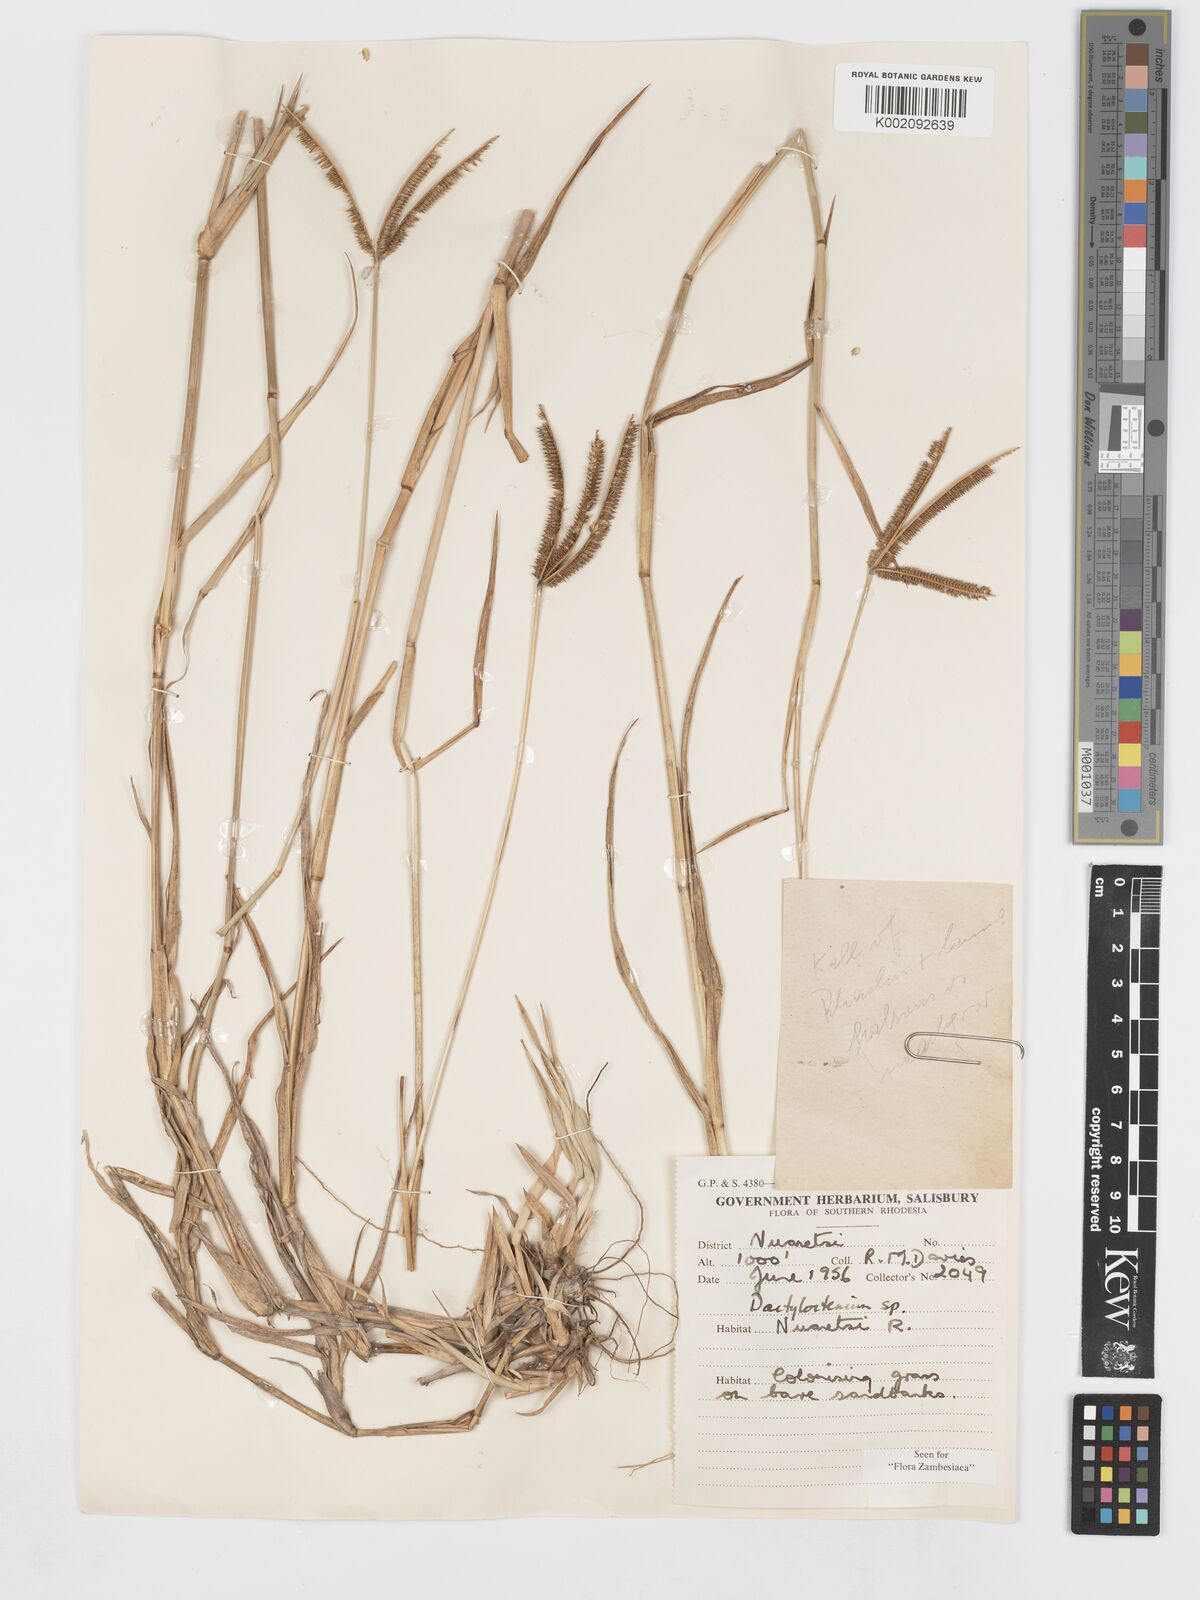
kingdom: Plantae
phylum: Tracheophyta
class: Liliopsida
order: Poales
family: Poaceae
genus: Dactyloctenium
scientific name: Dactyloctenium geminatum
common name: Crowsfoot grass
